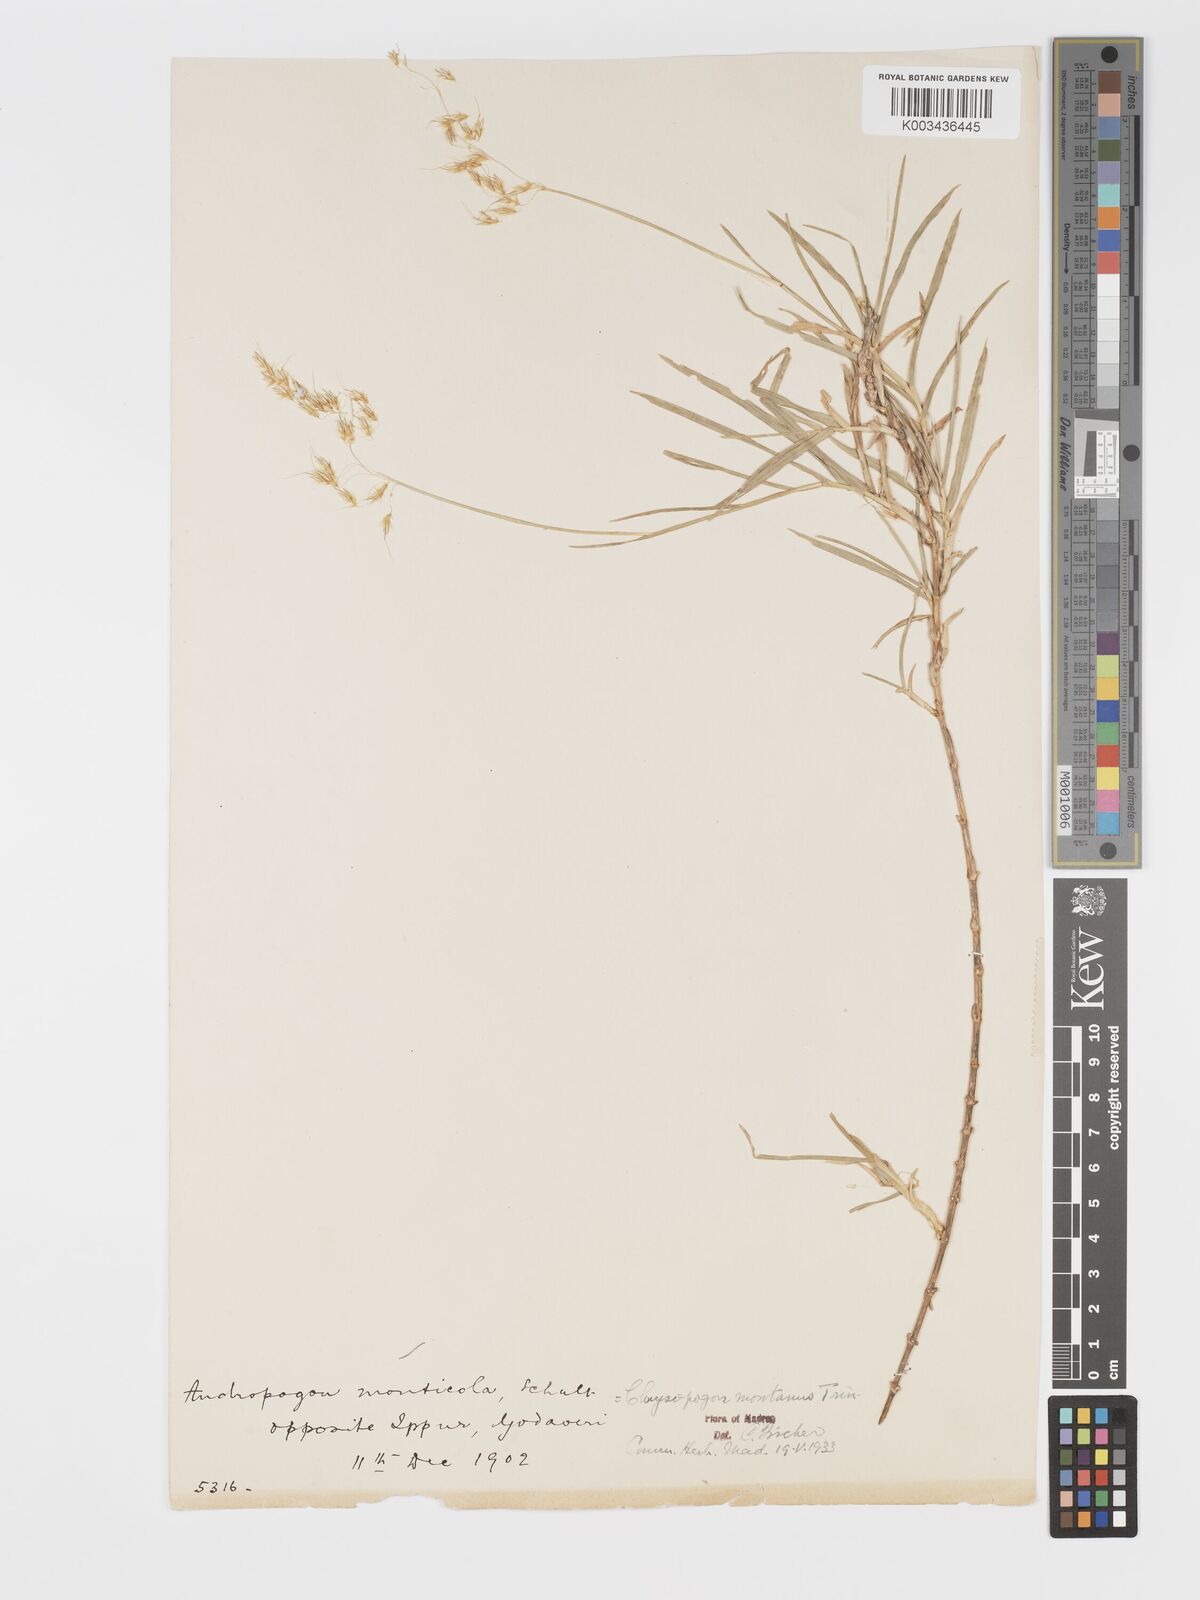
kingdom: Plantae
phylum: Tracheophyta
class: Liliopsida
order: Poales
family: Poaceae
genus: Chrysopogon
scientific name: Chrysopogon polyphyllus
